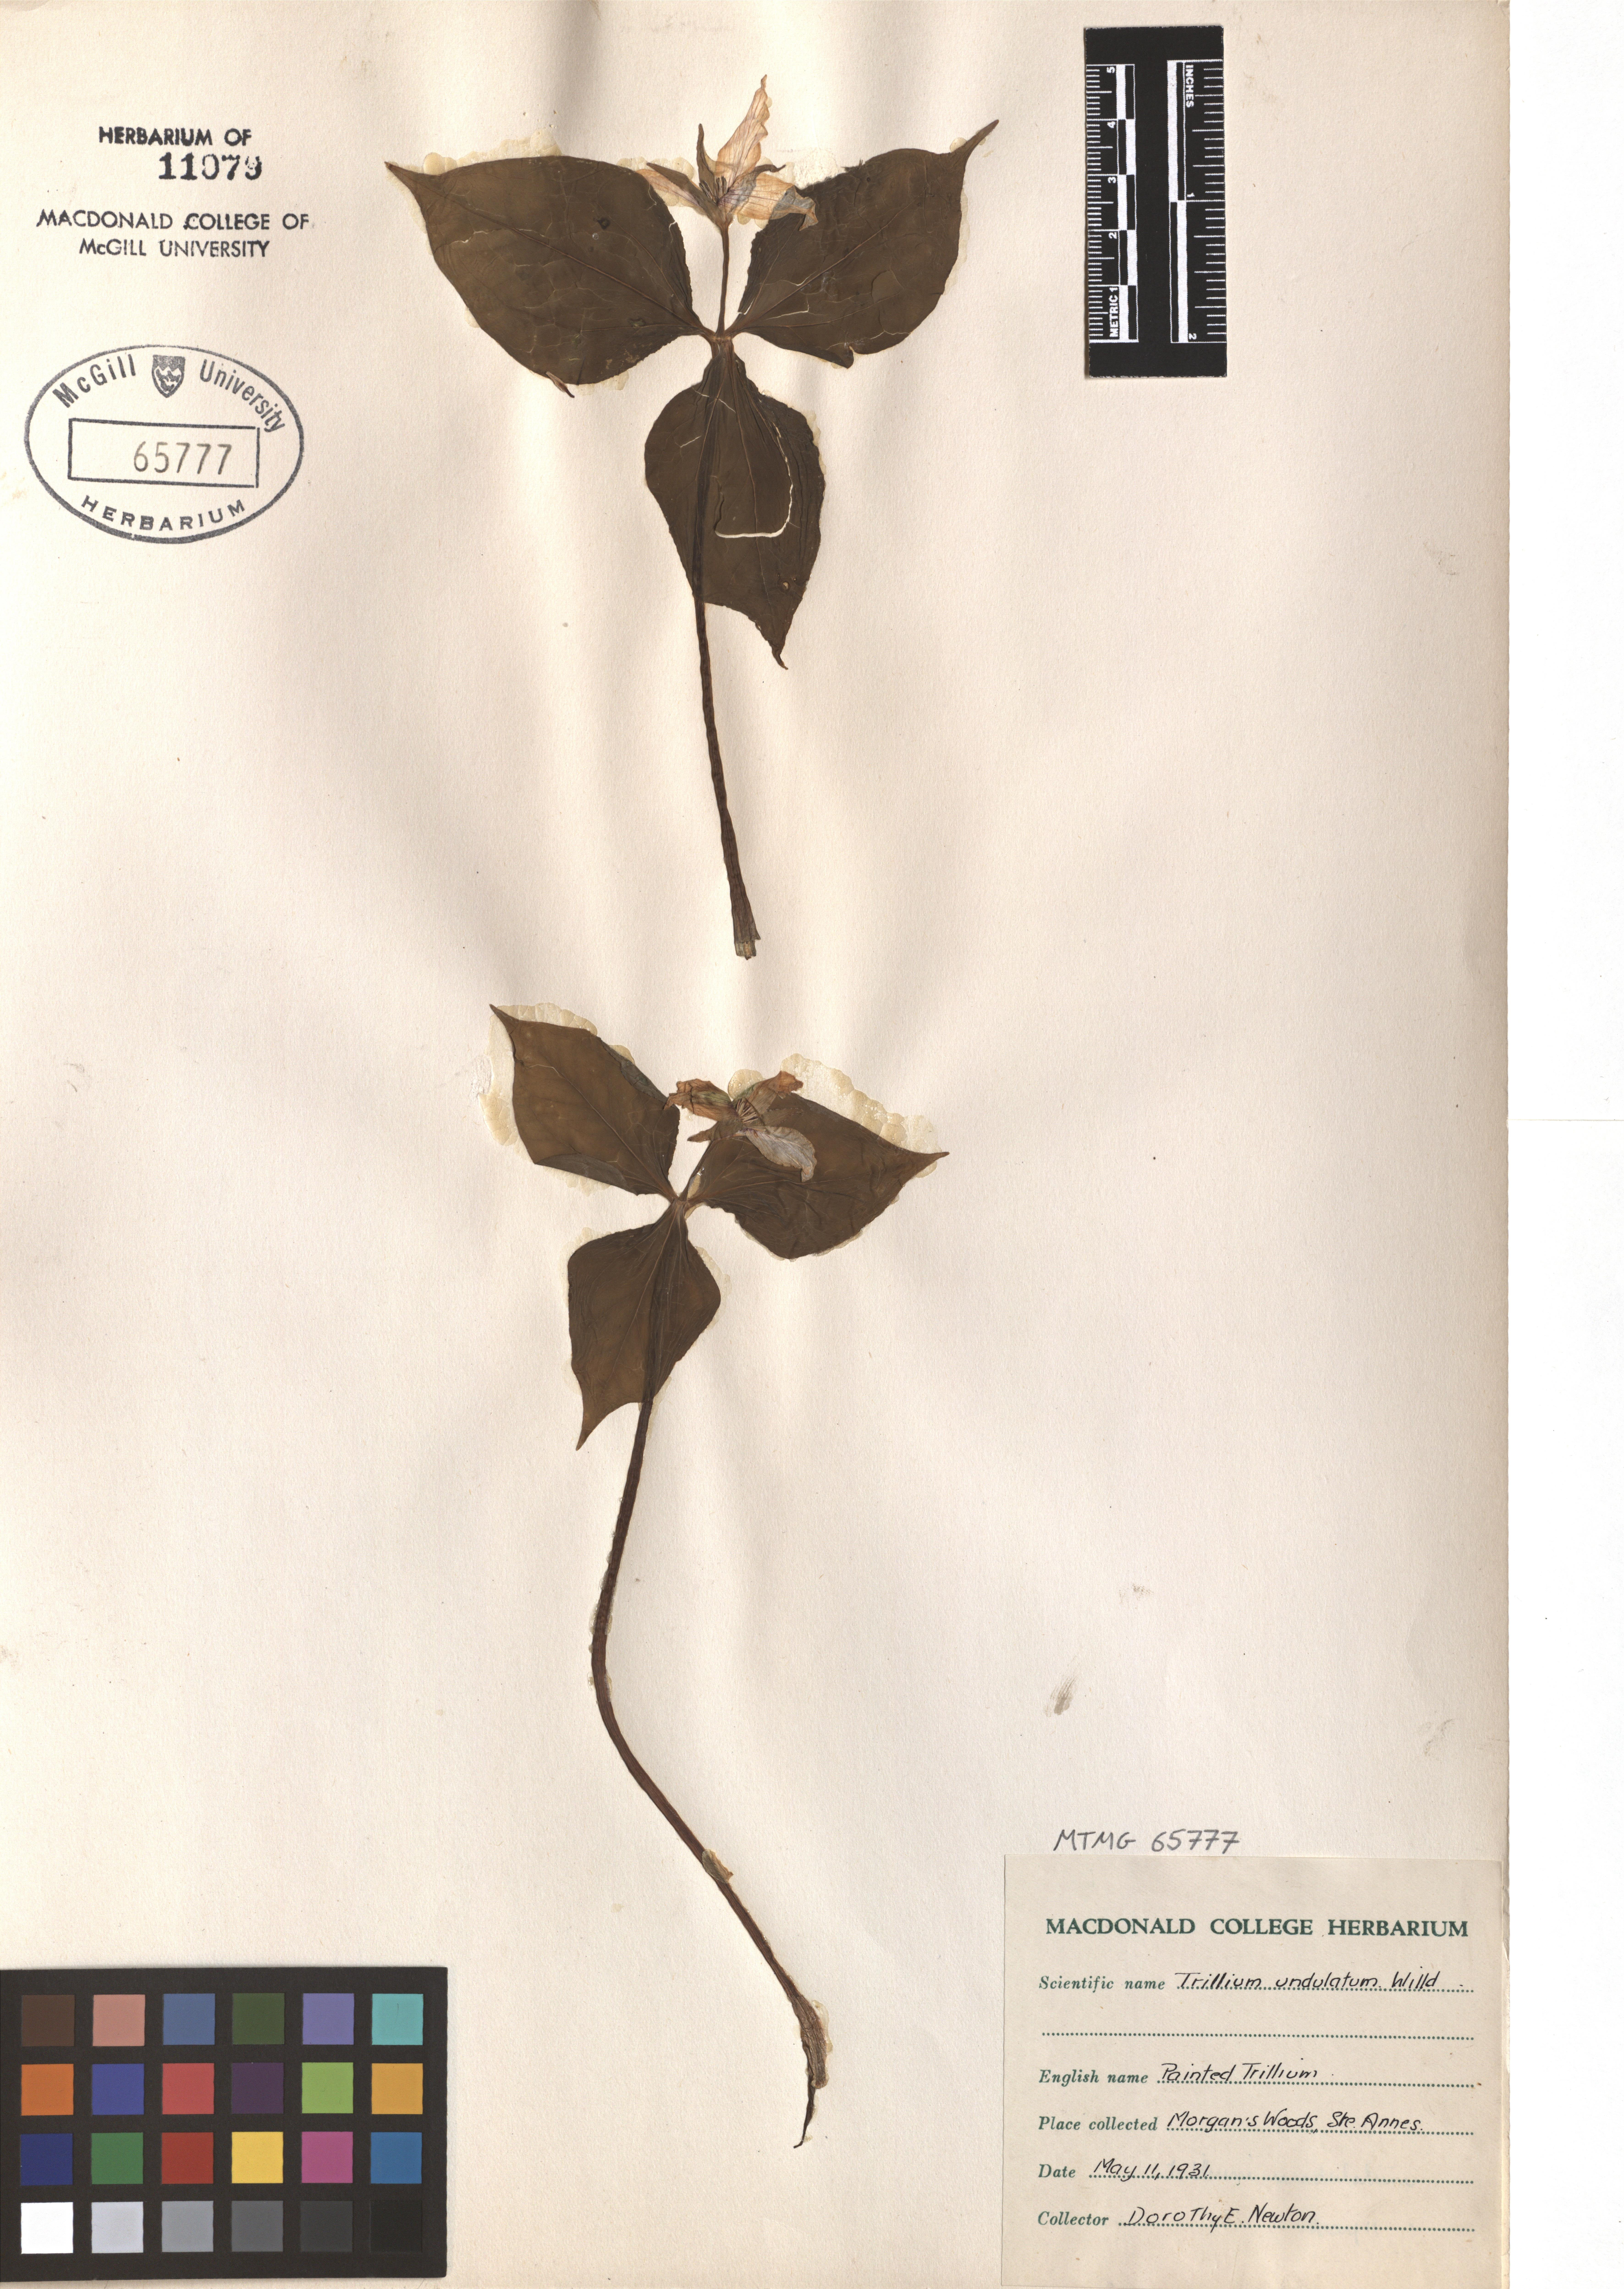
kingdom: Plantae
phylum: Tracheophyta
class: Liliopsida
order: Liliales
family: Melanthiaceae
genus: Trillium
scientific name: Trillium undulatum
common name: Paint trillium
